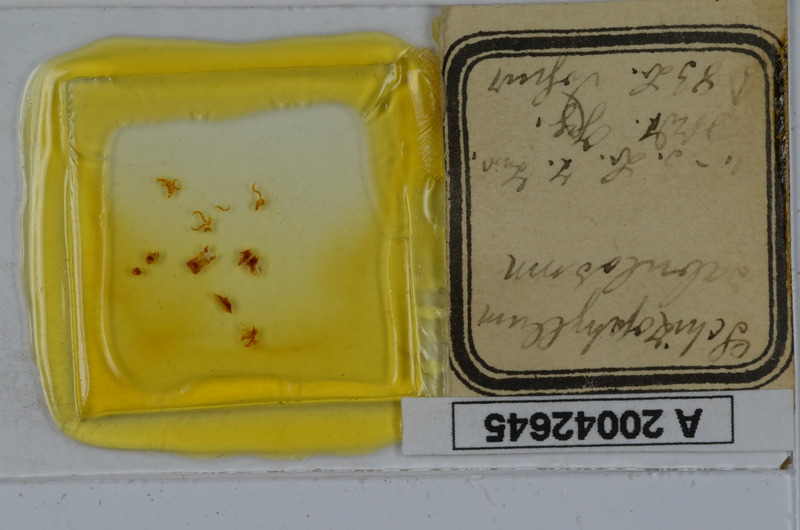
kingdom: Animalia
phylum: Arthropoda
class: Diplopoda
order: Julida
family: Julidae
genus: Schizophyllum
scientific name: Schizophyllum sabulosum
